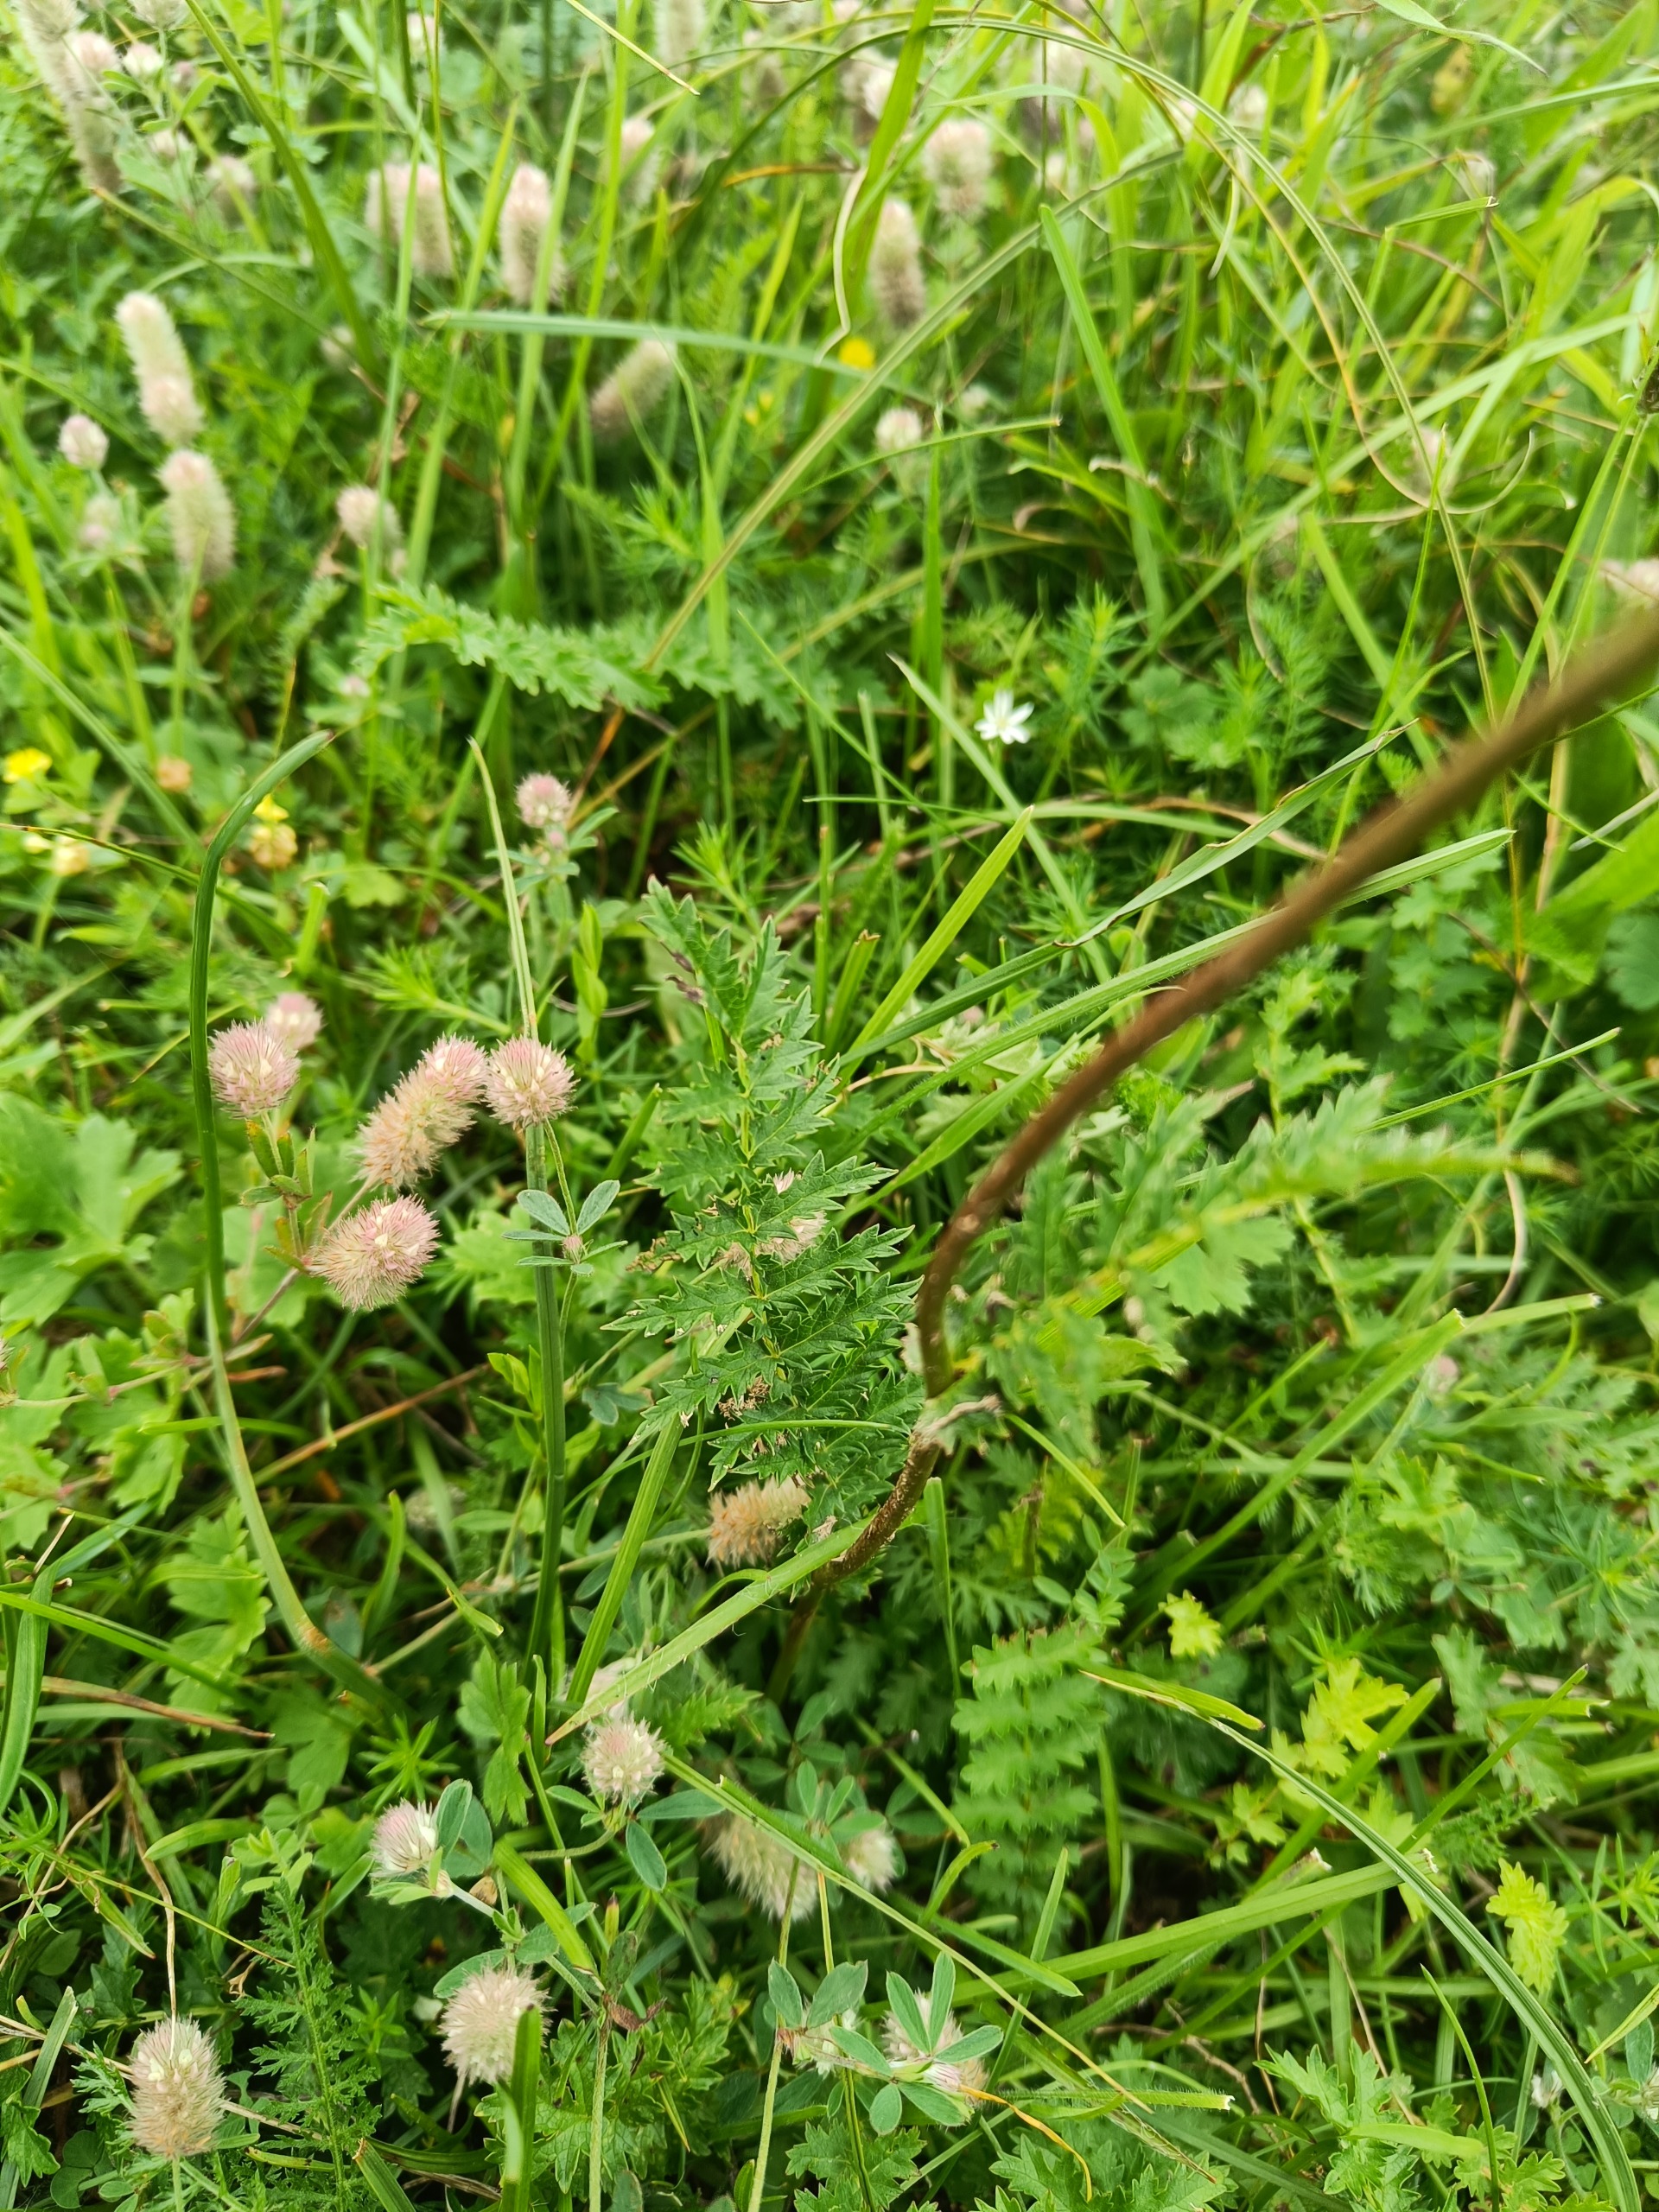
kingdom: Plantae
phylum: Tracheophyta
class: Magnoliopsida
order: Rosales
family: Rosaceae
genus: Filipendula
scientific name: Filipendula vulgaris
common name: Knoldet mjødurt
